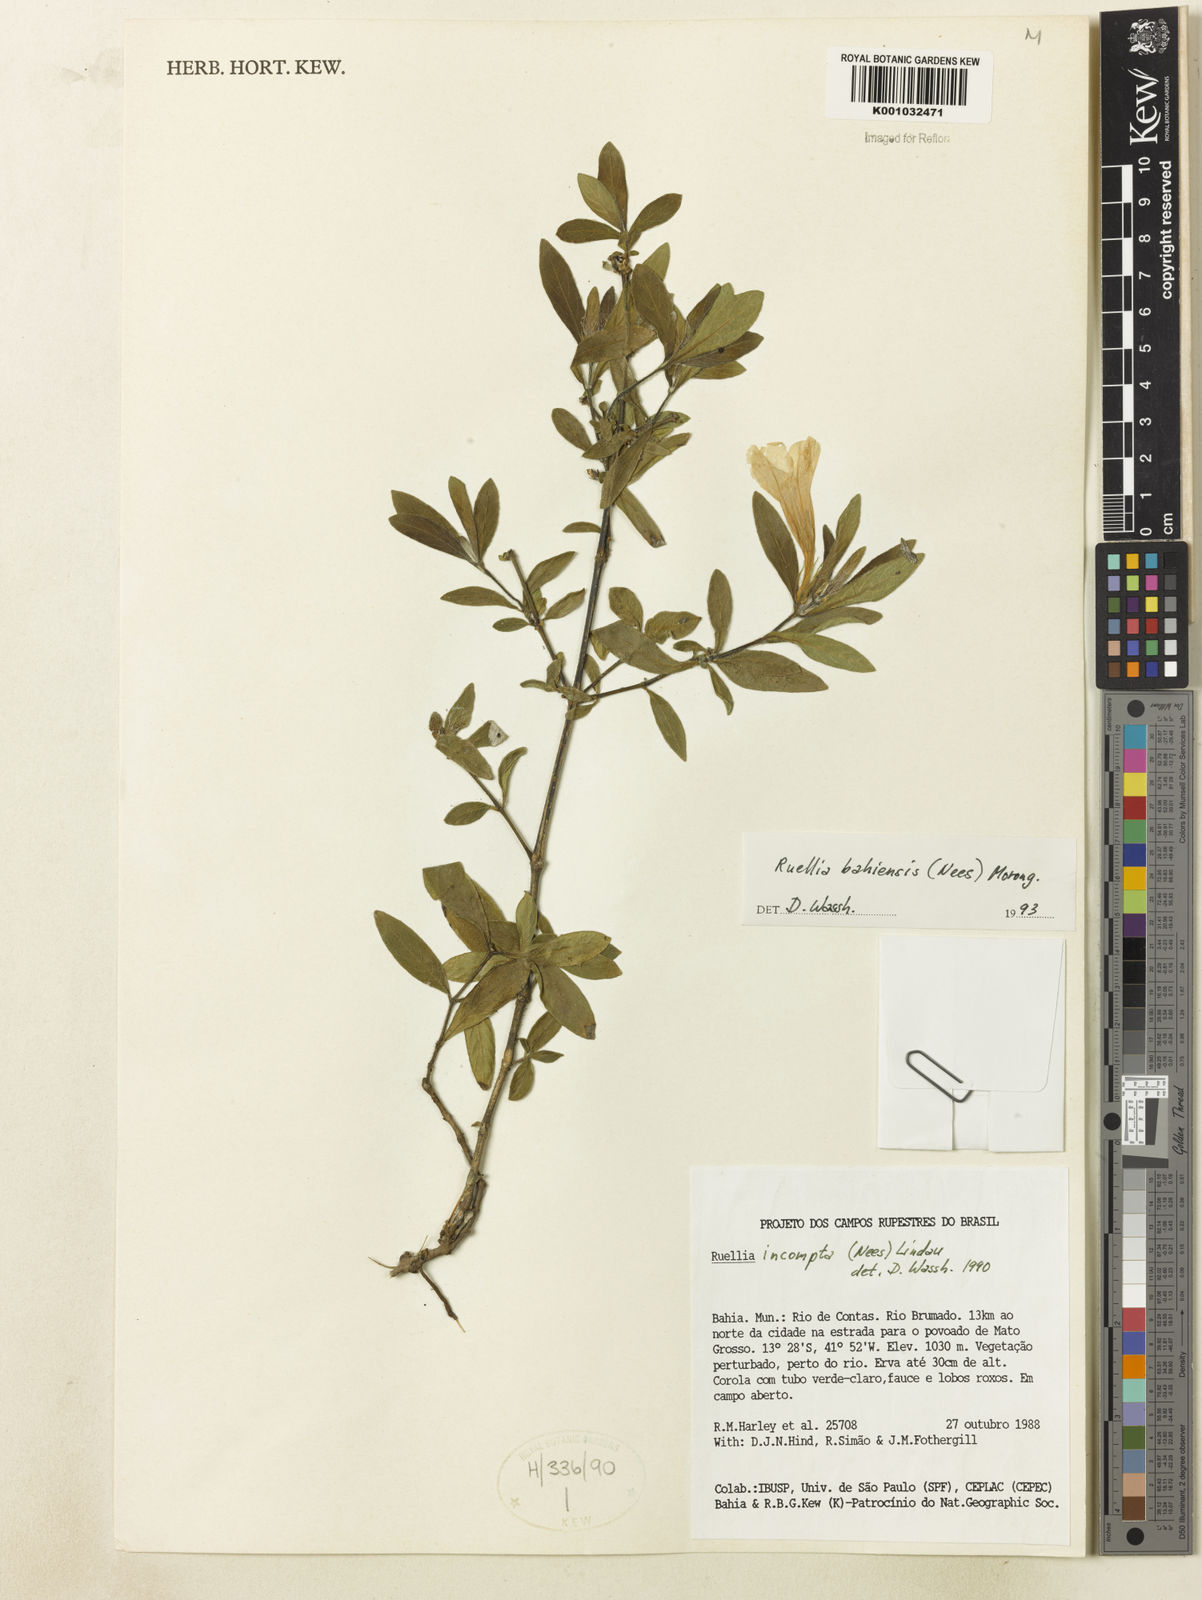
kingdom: Plantae
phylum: Tracheophyta
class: Magnoliopsida
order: Lamiales
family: Acanthaceae
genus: Ruellia
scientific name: Ruellia bahiensis
